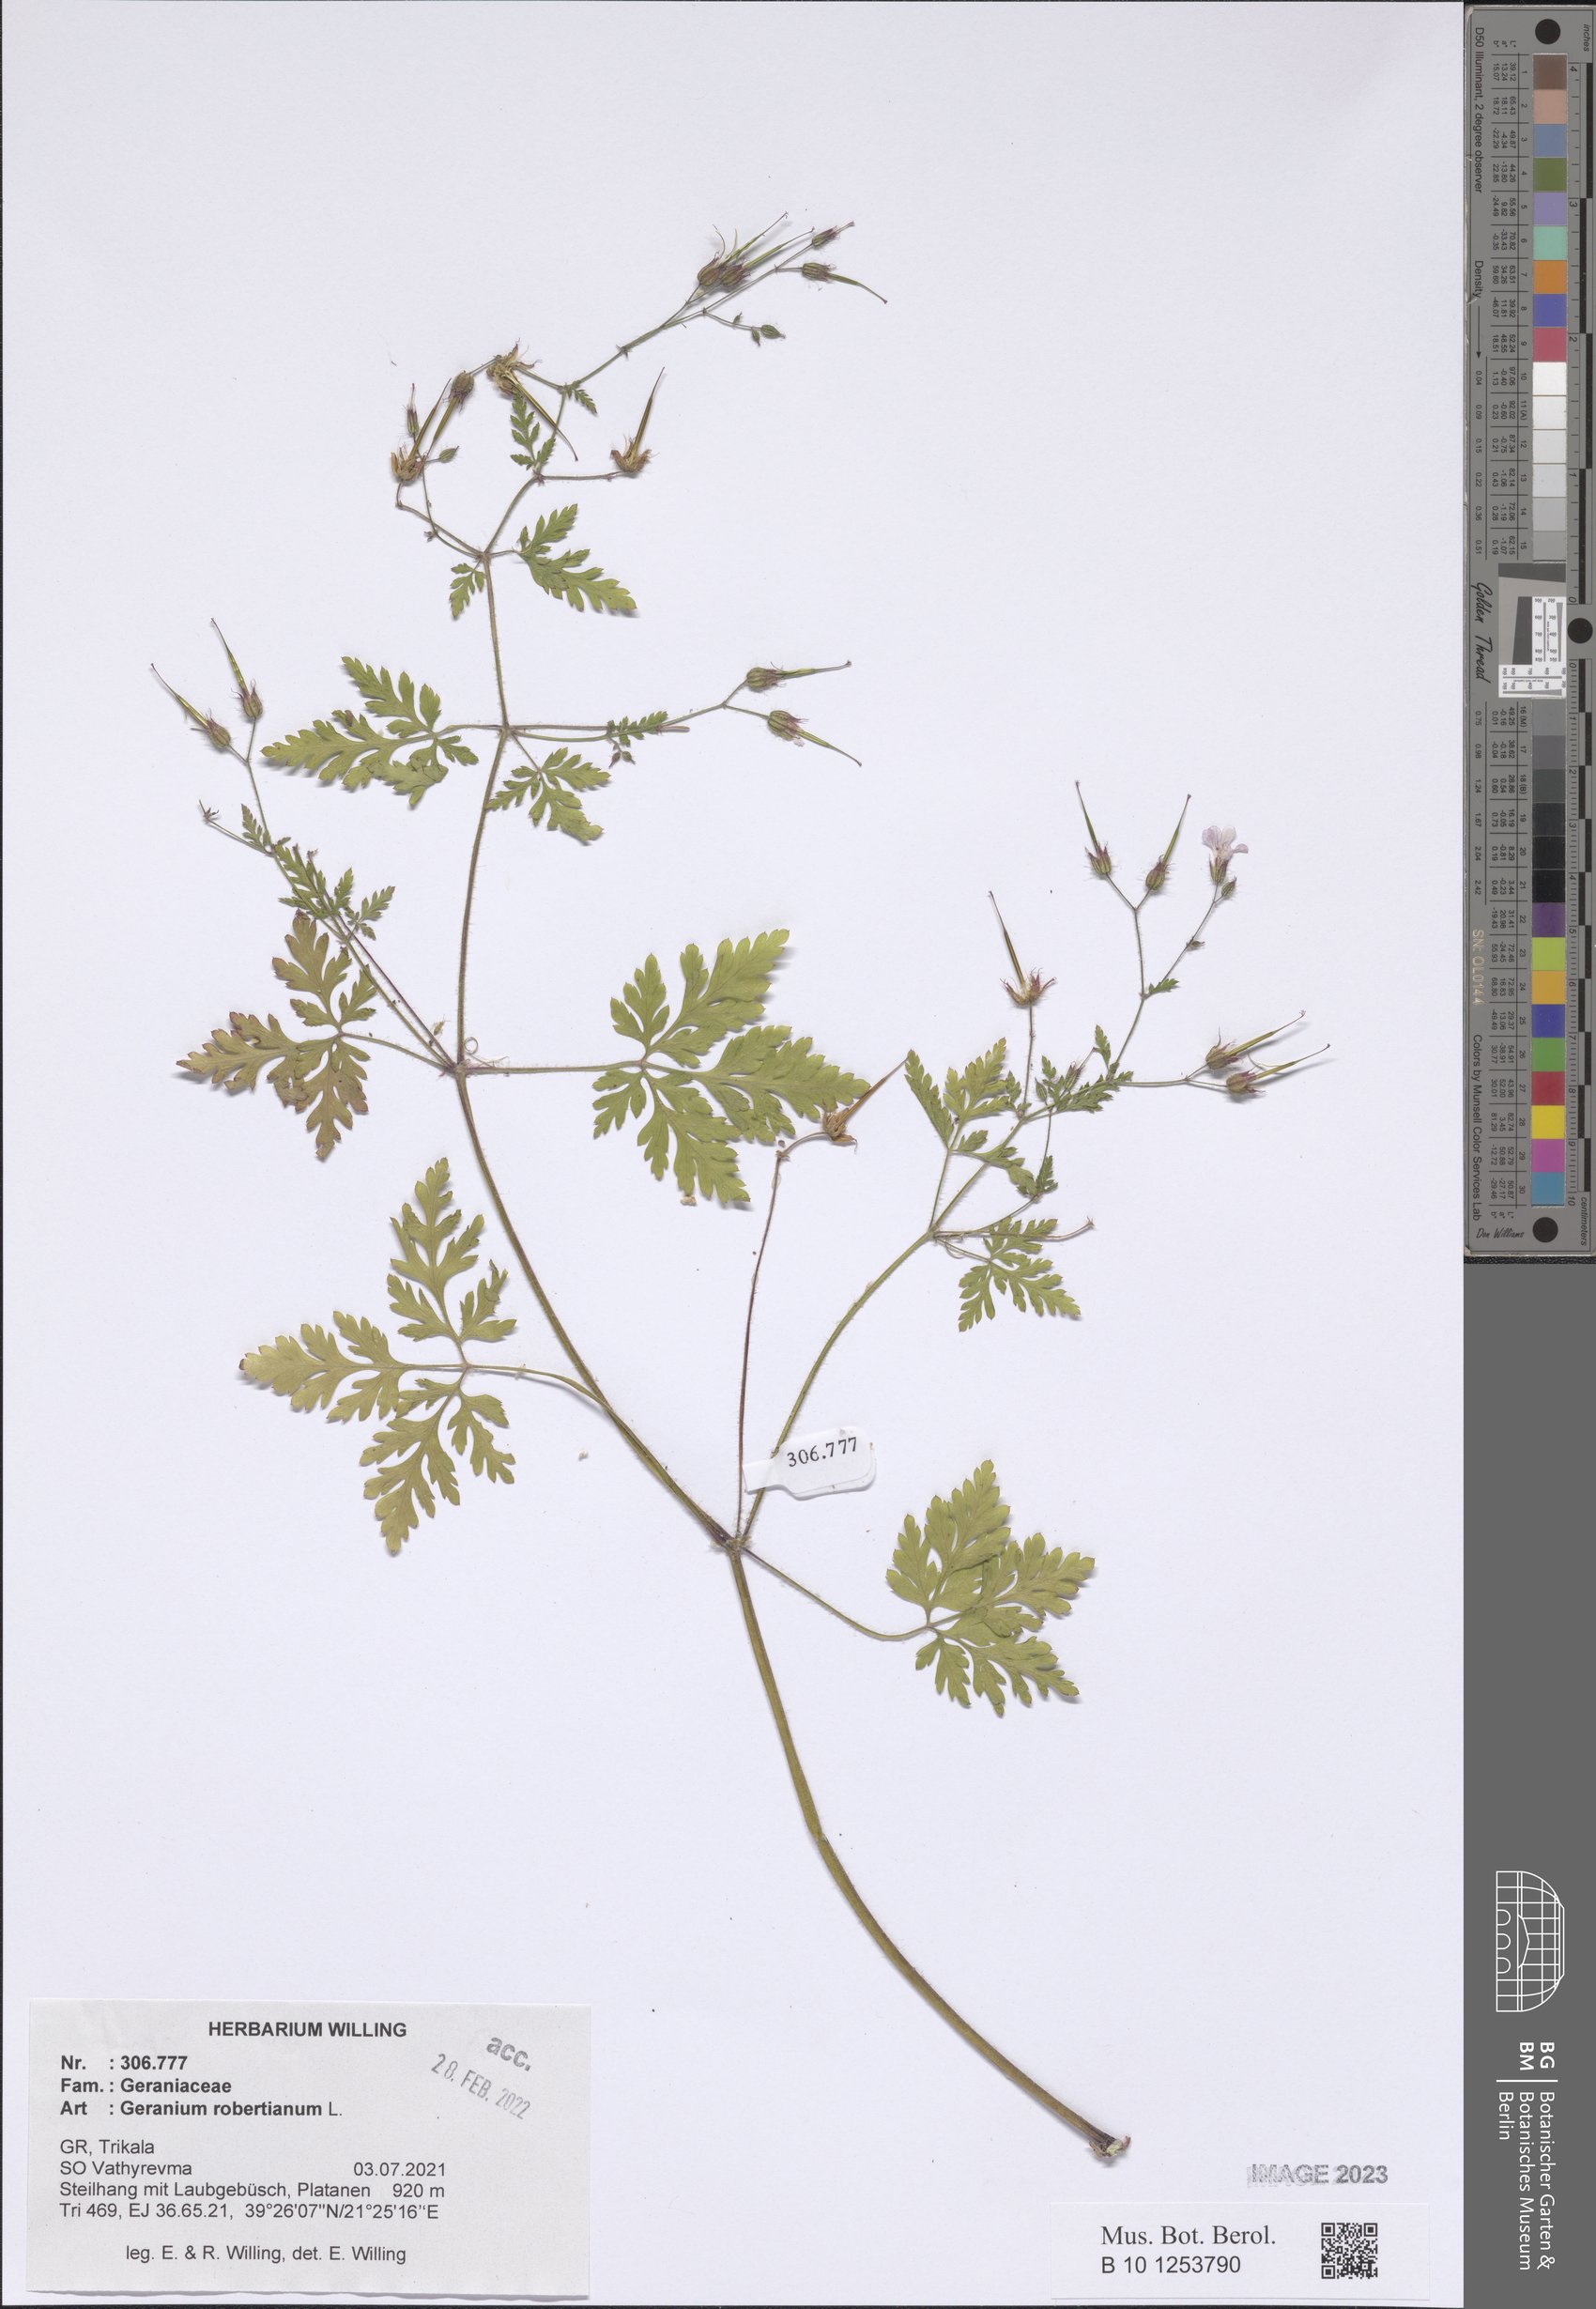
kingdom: Plantae
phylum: Tracheophyta
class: Magnoliopsida
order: Geraniales
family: Geraniaceae
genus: Geranium
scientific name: Geranium robertianum
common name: Herb-robert
